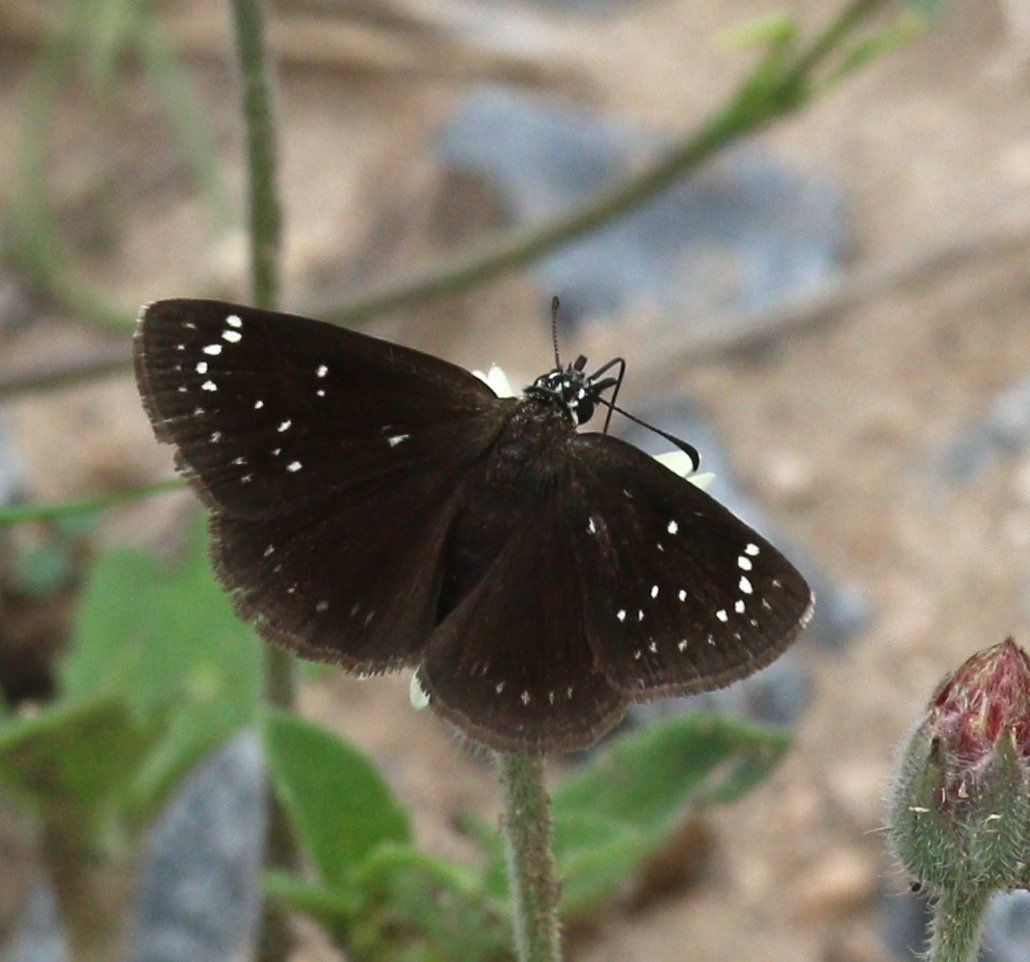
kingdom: Animalia
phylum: Arthropoda
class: Insecta
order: Lepidoptera
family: Hesperiidae
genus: Pholisora
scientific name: Pholisora catullus
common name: Common Sootywing
